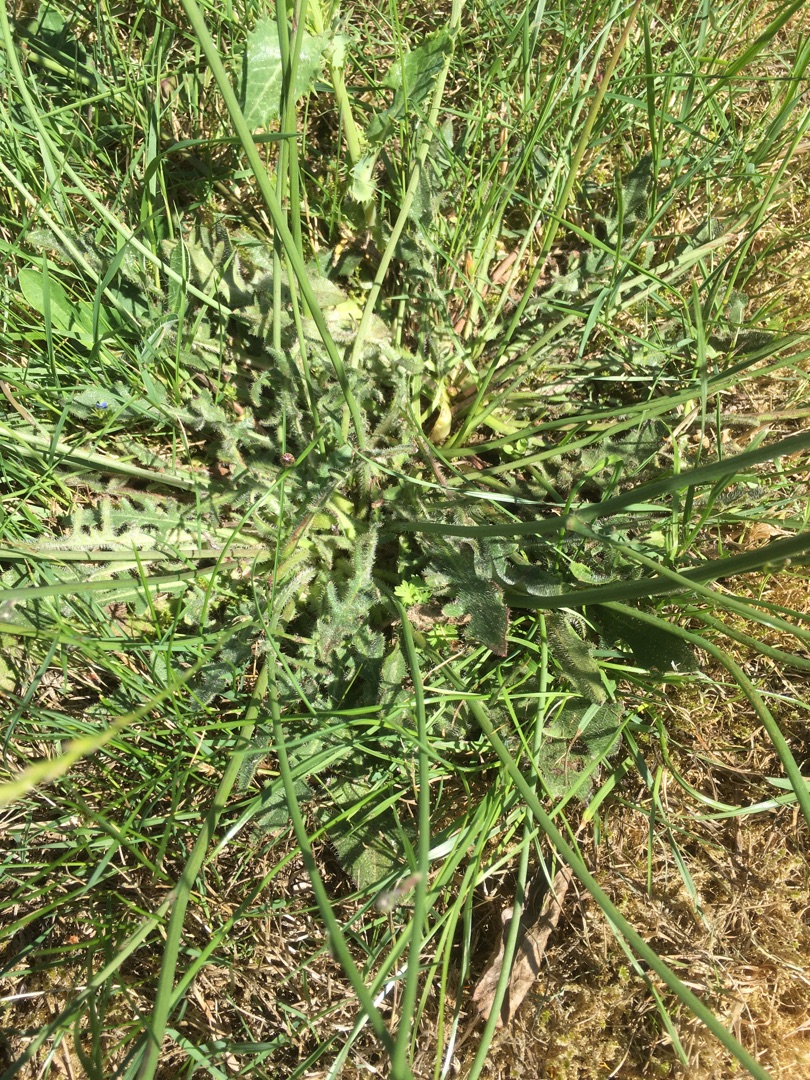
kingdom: Plantae
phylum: Tracheophyta
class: Magnoliopsida
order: Asterales
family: Asteraceae
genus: Hypochaeris
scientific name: Hypochaeris radicata
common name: Almindelig kongepen
